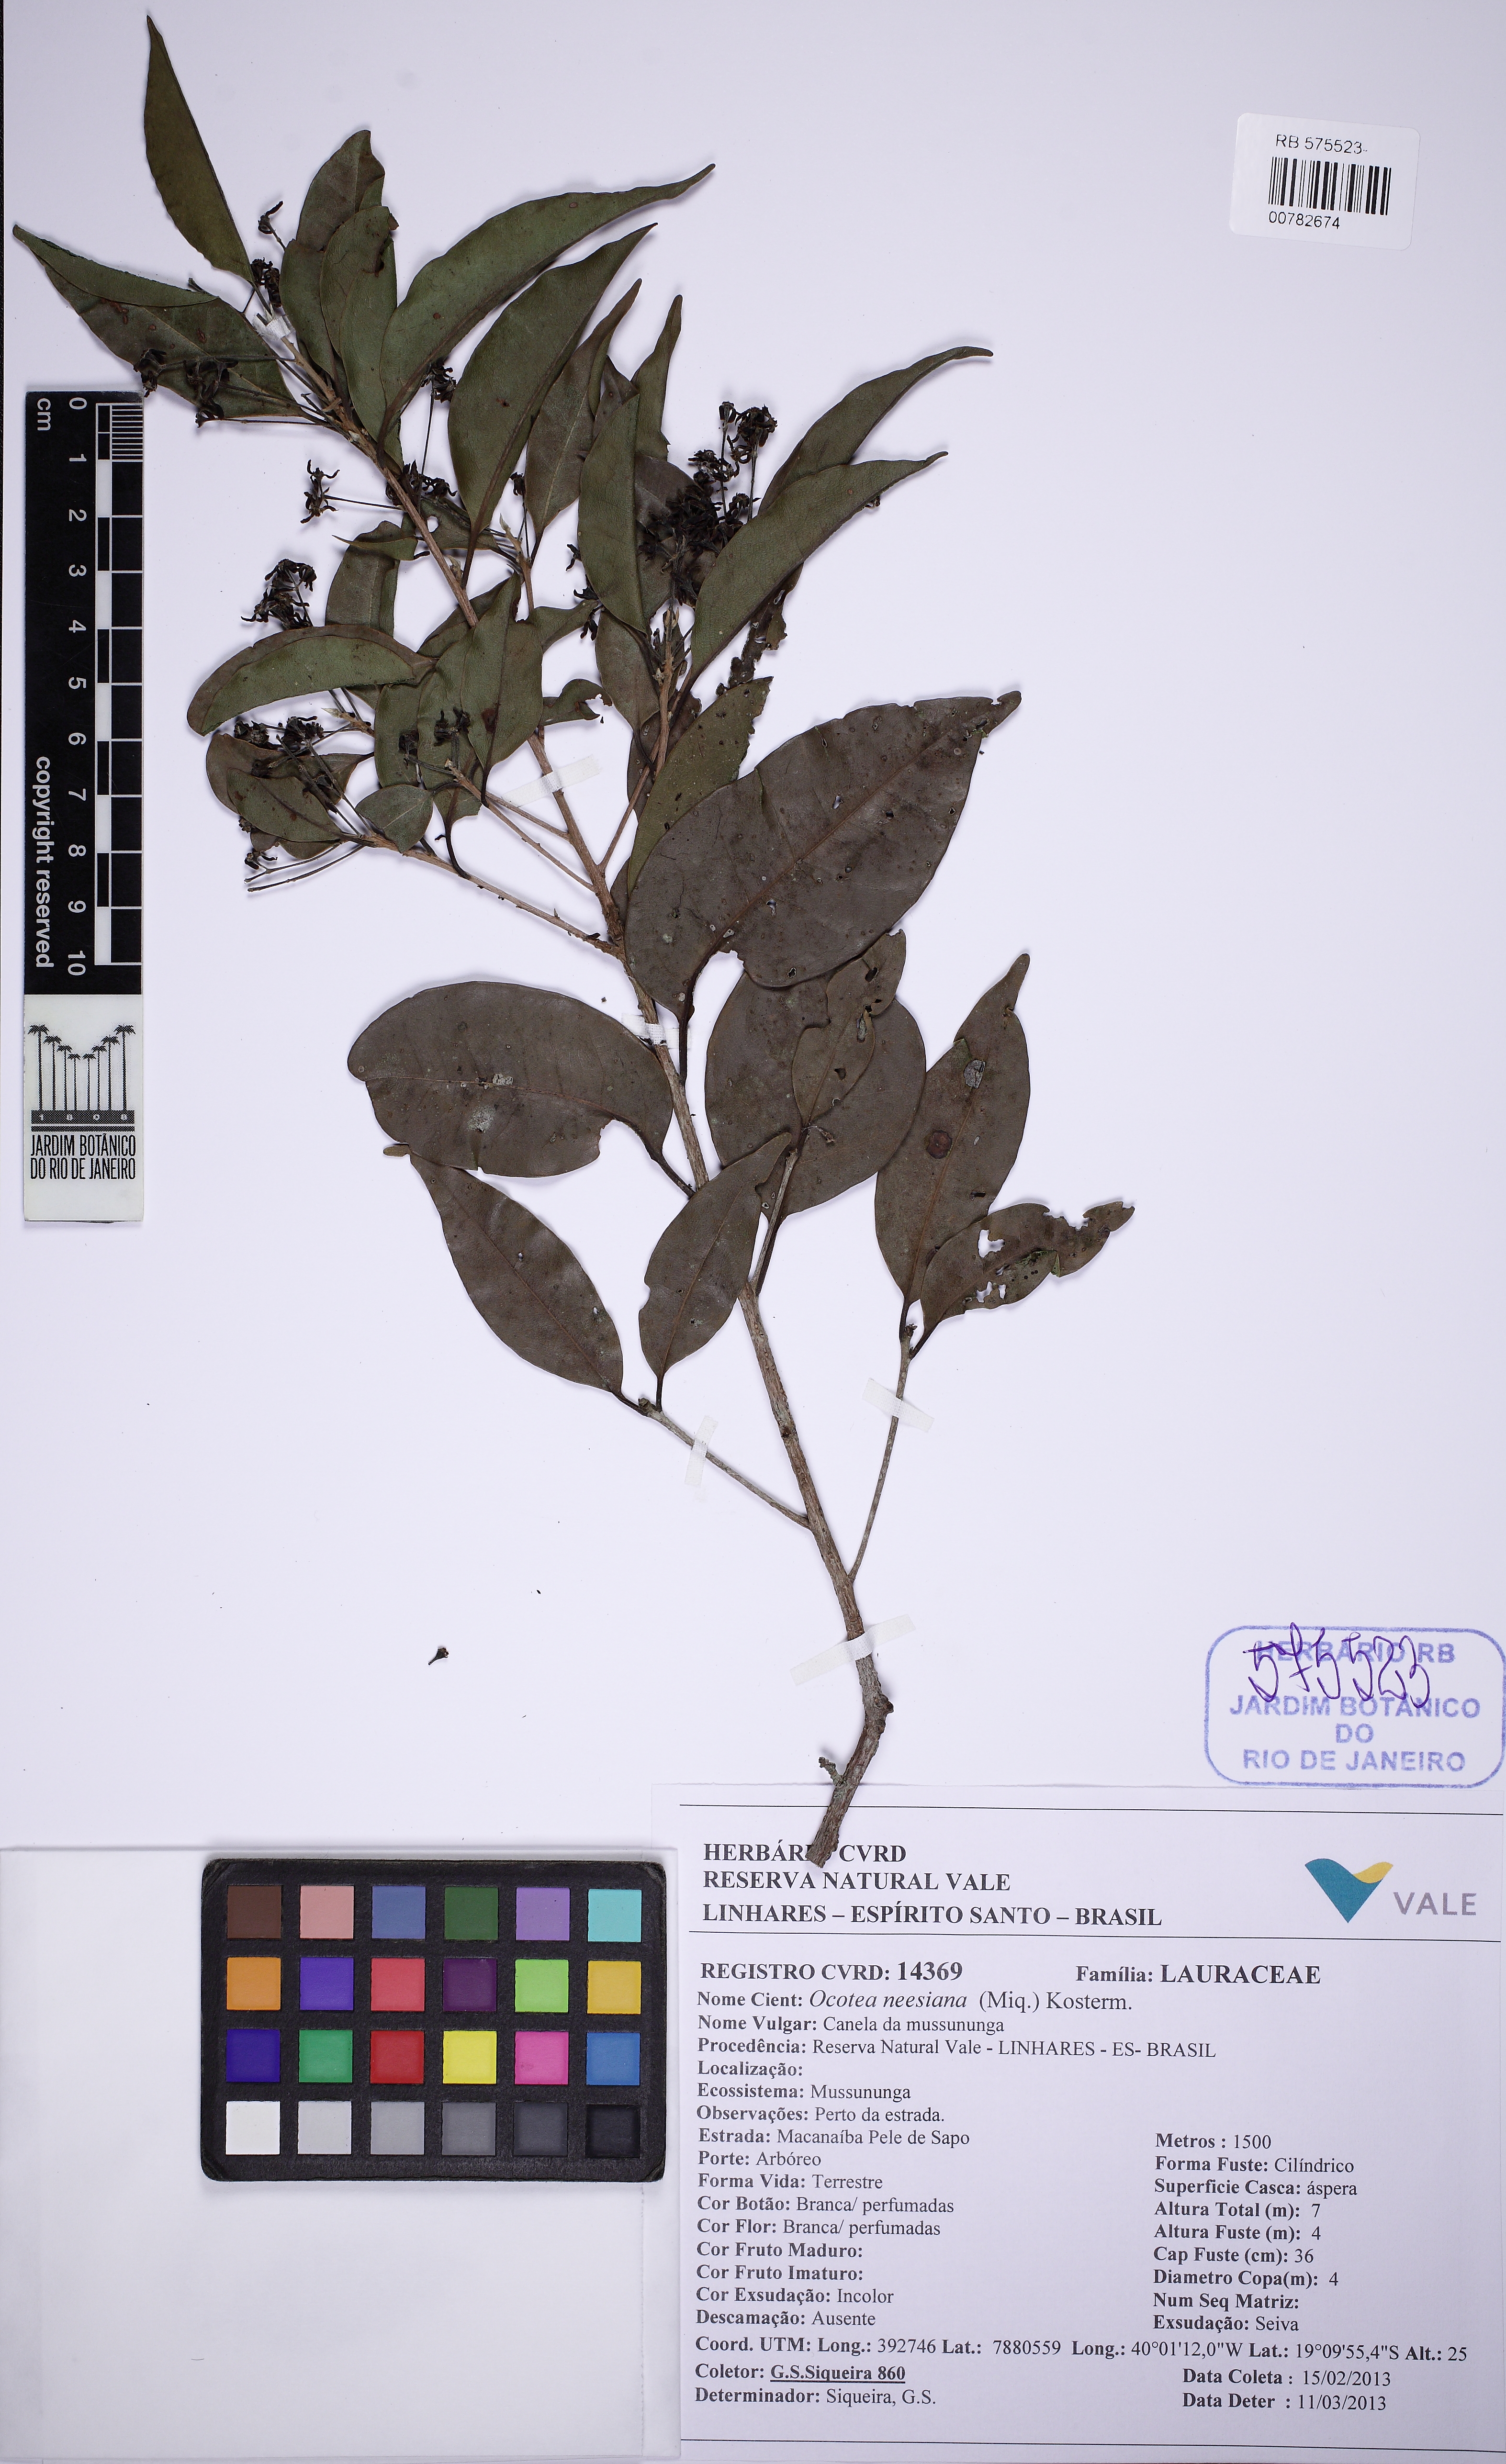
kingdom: Plantae
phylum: Tracheophyta
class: Magnoliopsida
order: Laurales
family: Lauraceae
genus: Ocotea
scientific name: Ocotea neesiana
